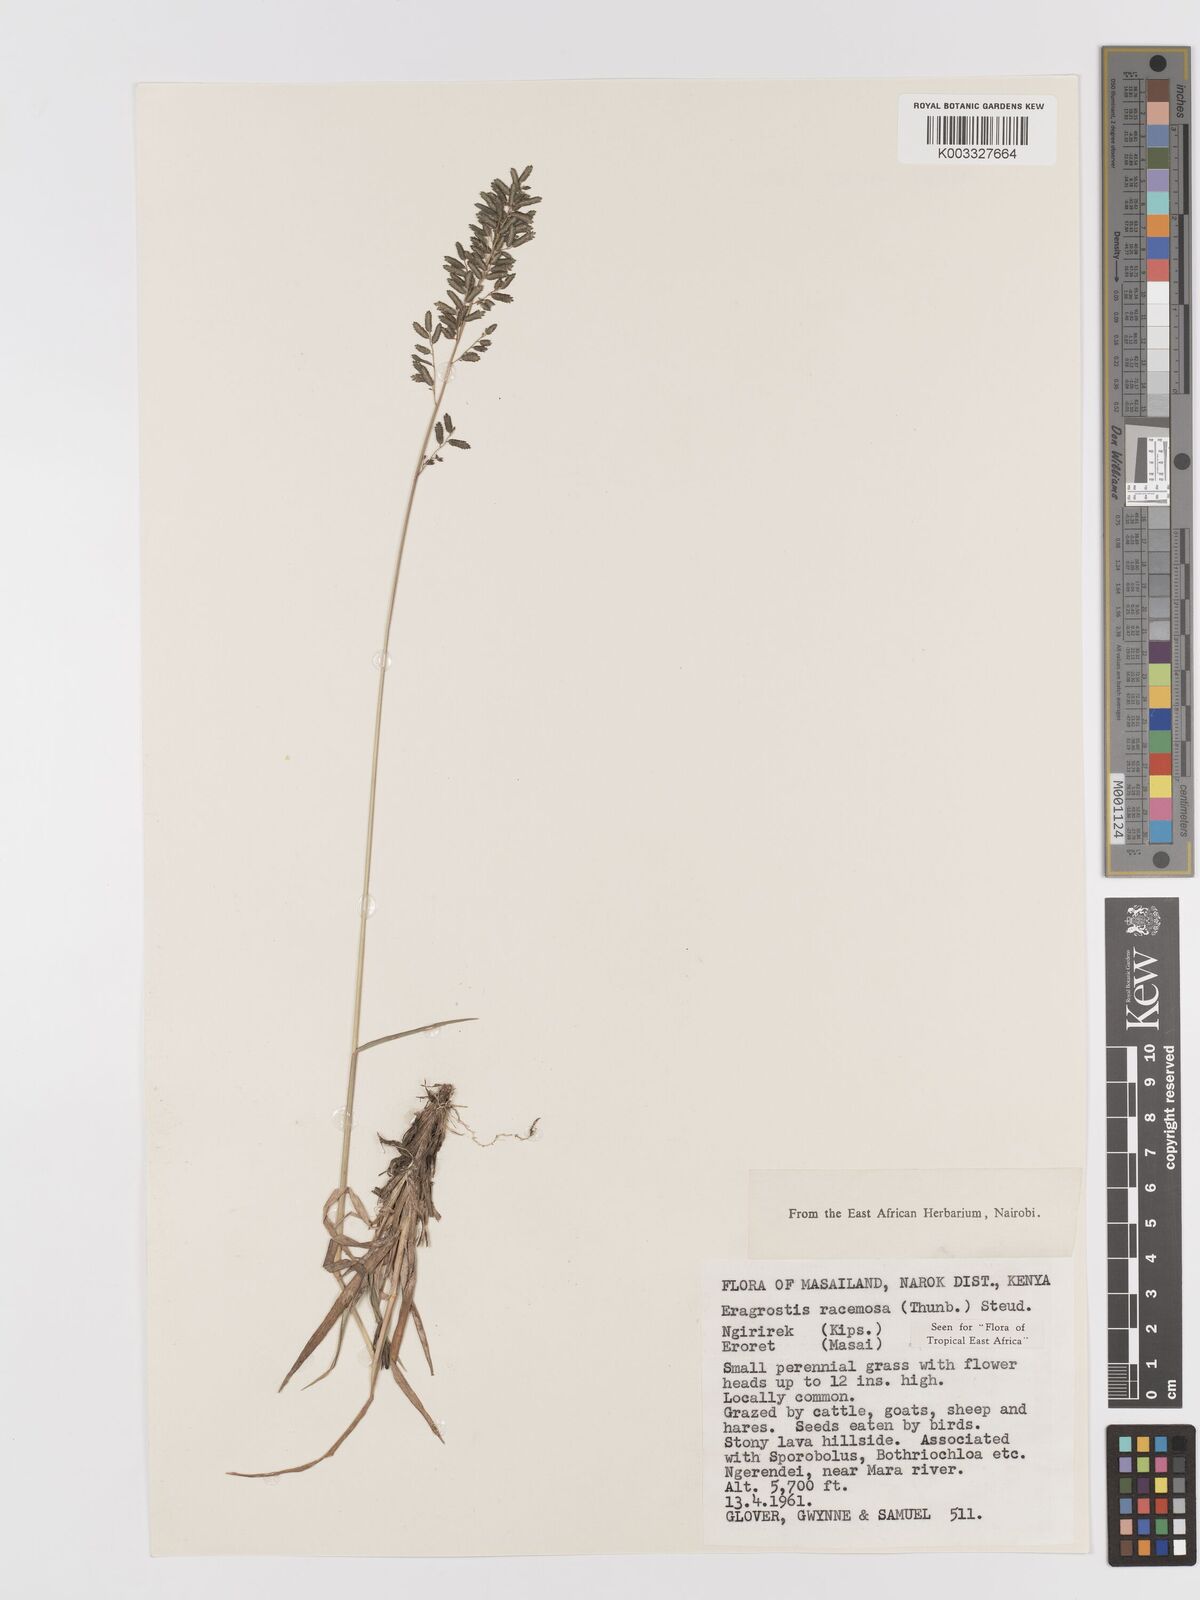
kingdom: Plantae
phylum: Tracheophyta
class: Liliopsida
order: Poales
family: Poaceae
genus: Eragrostis
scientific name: Eragrostis racemosa
